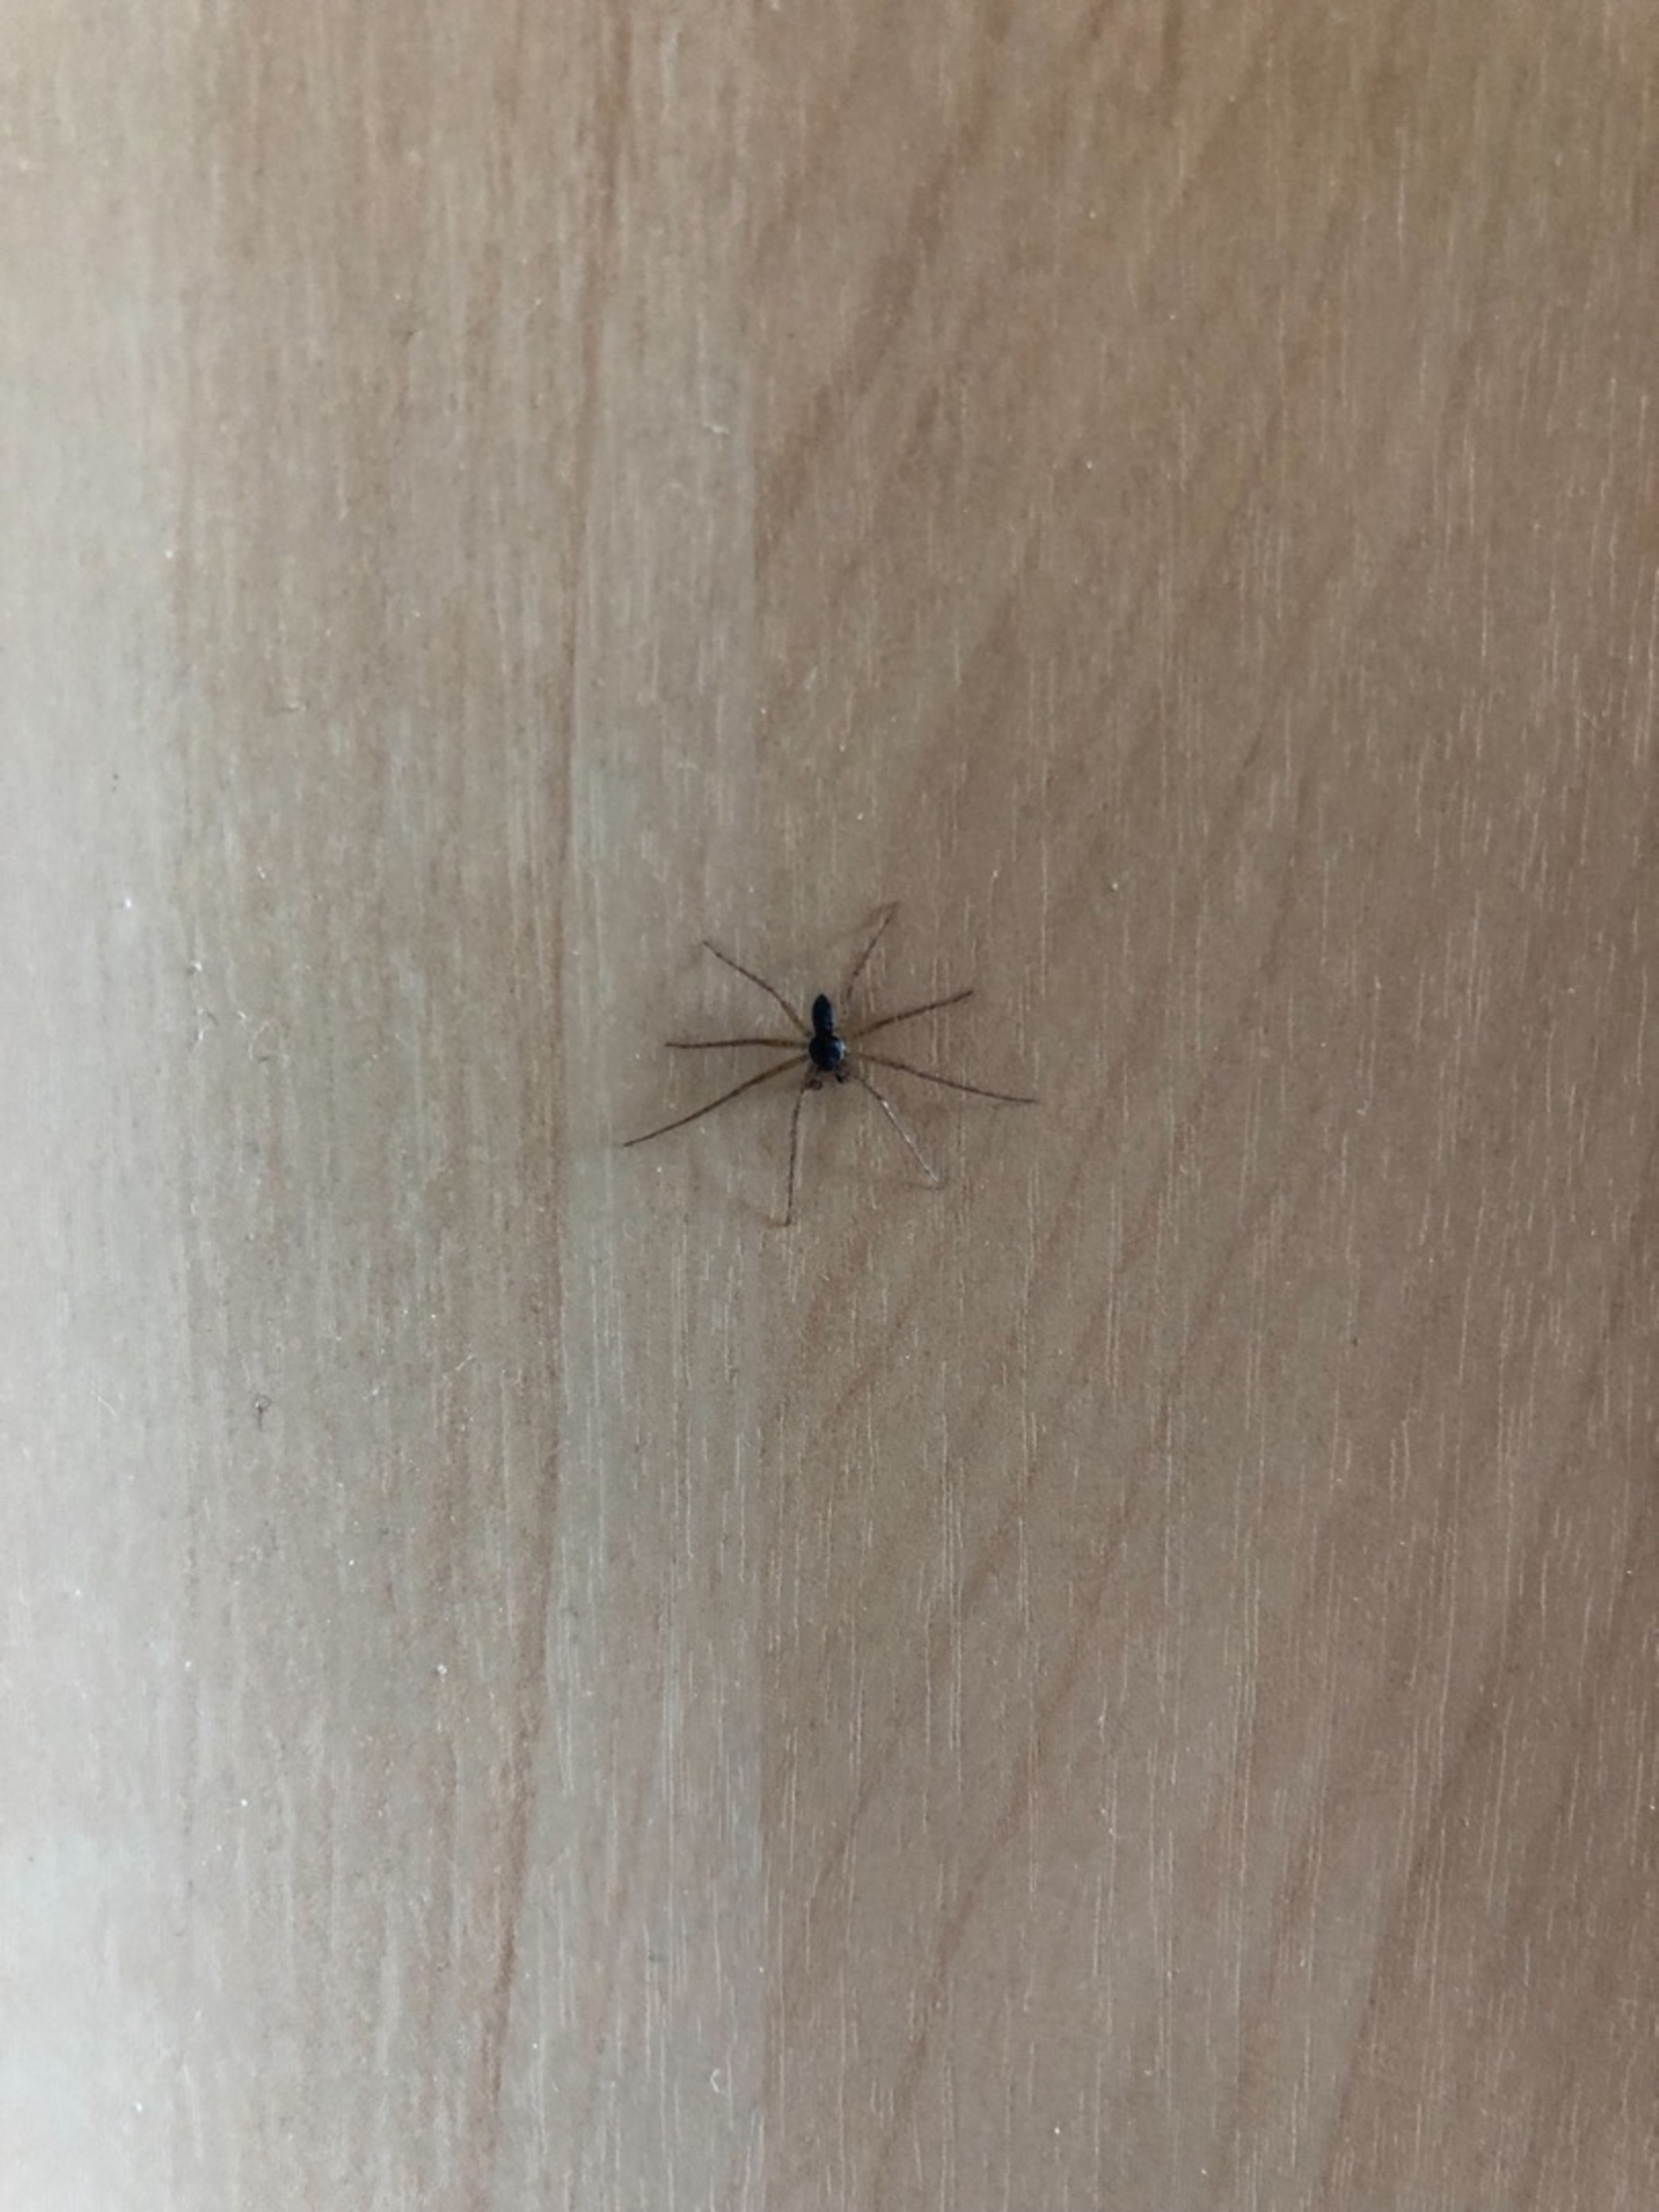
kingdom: Animalia
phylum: Arthropoda
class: Arachnida
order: Araneae
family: Philodromidae
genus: Philodromus
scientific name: Philodromus dispar
